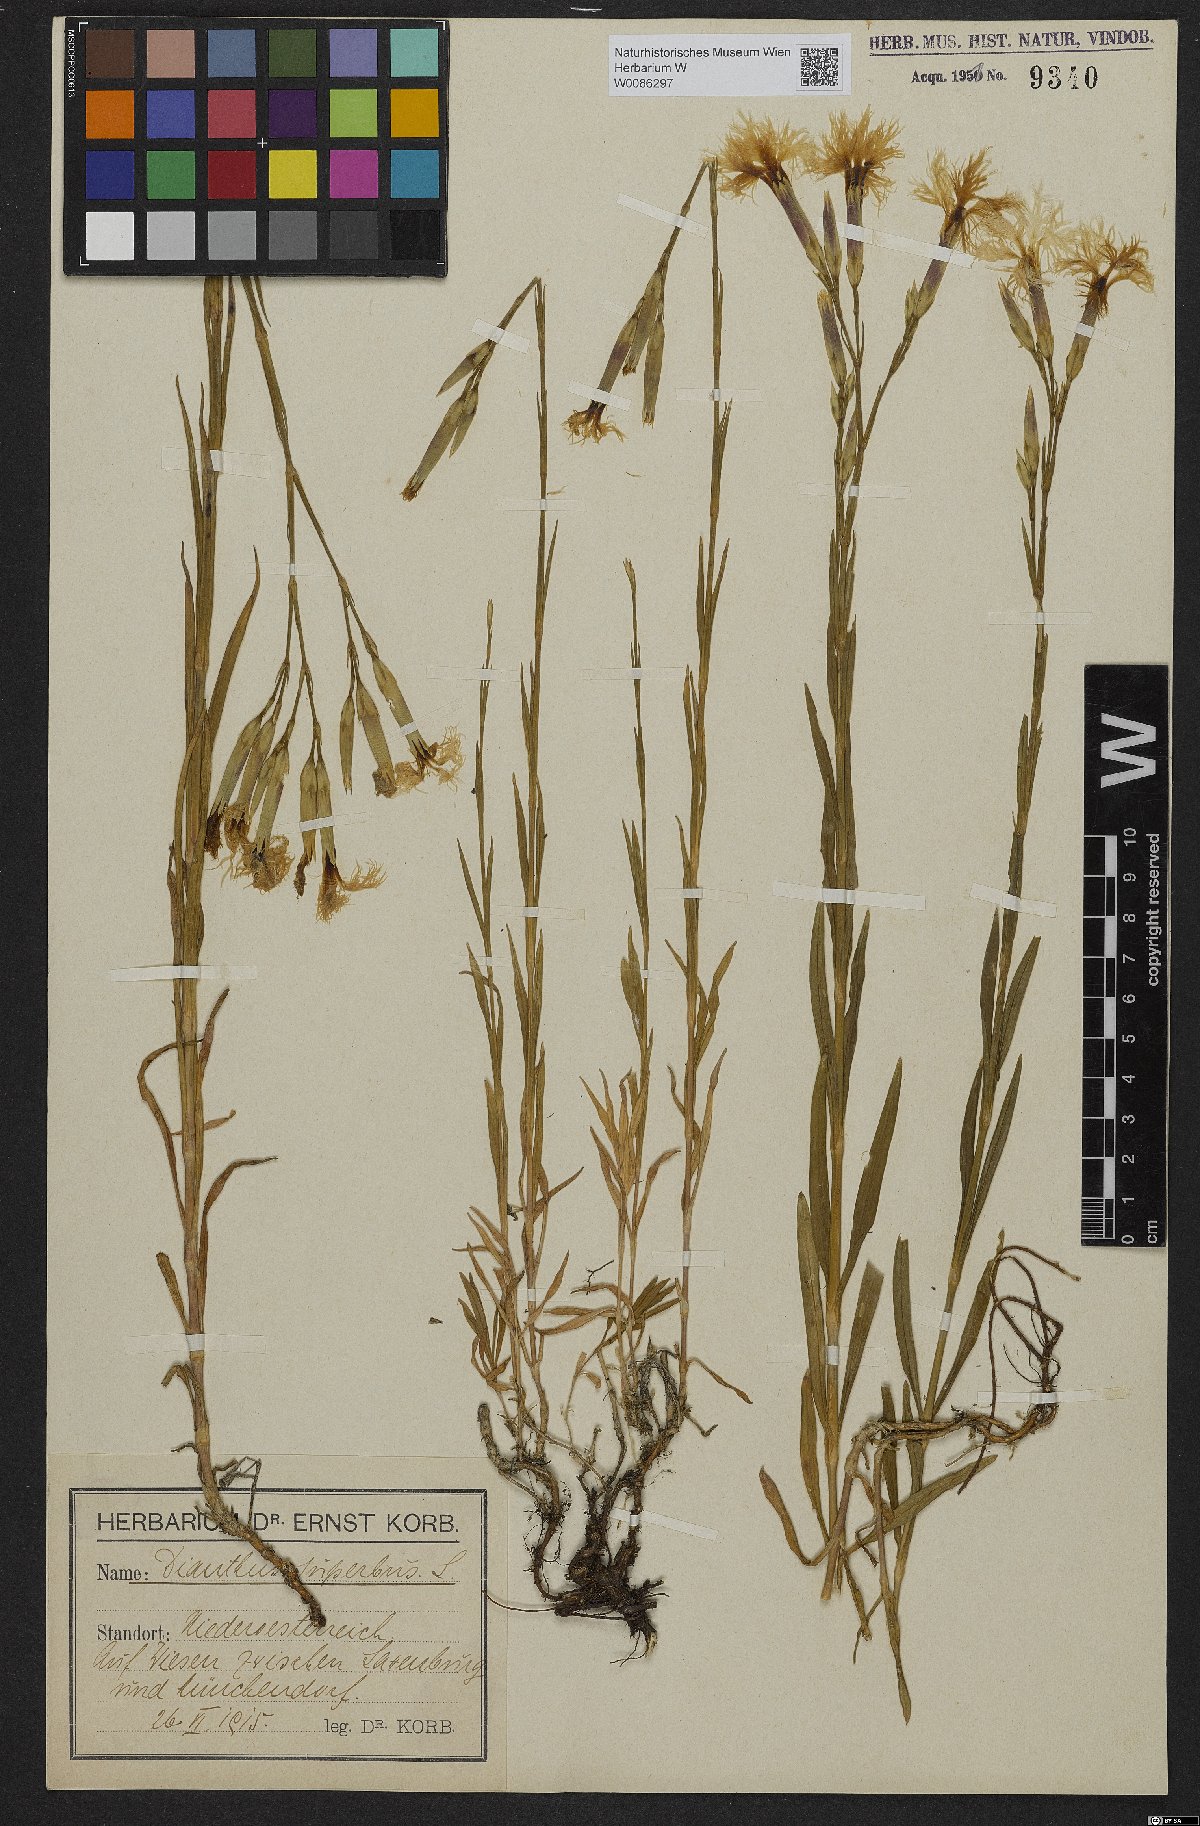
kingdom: Plantae
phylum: Tracheophyta
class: Magnoliopsida
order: Caryophyllales
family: Caryophyllaceae
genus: Dianthus
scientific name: Dianthus superbus
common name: Fringed pink
